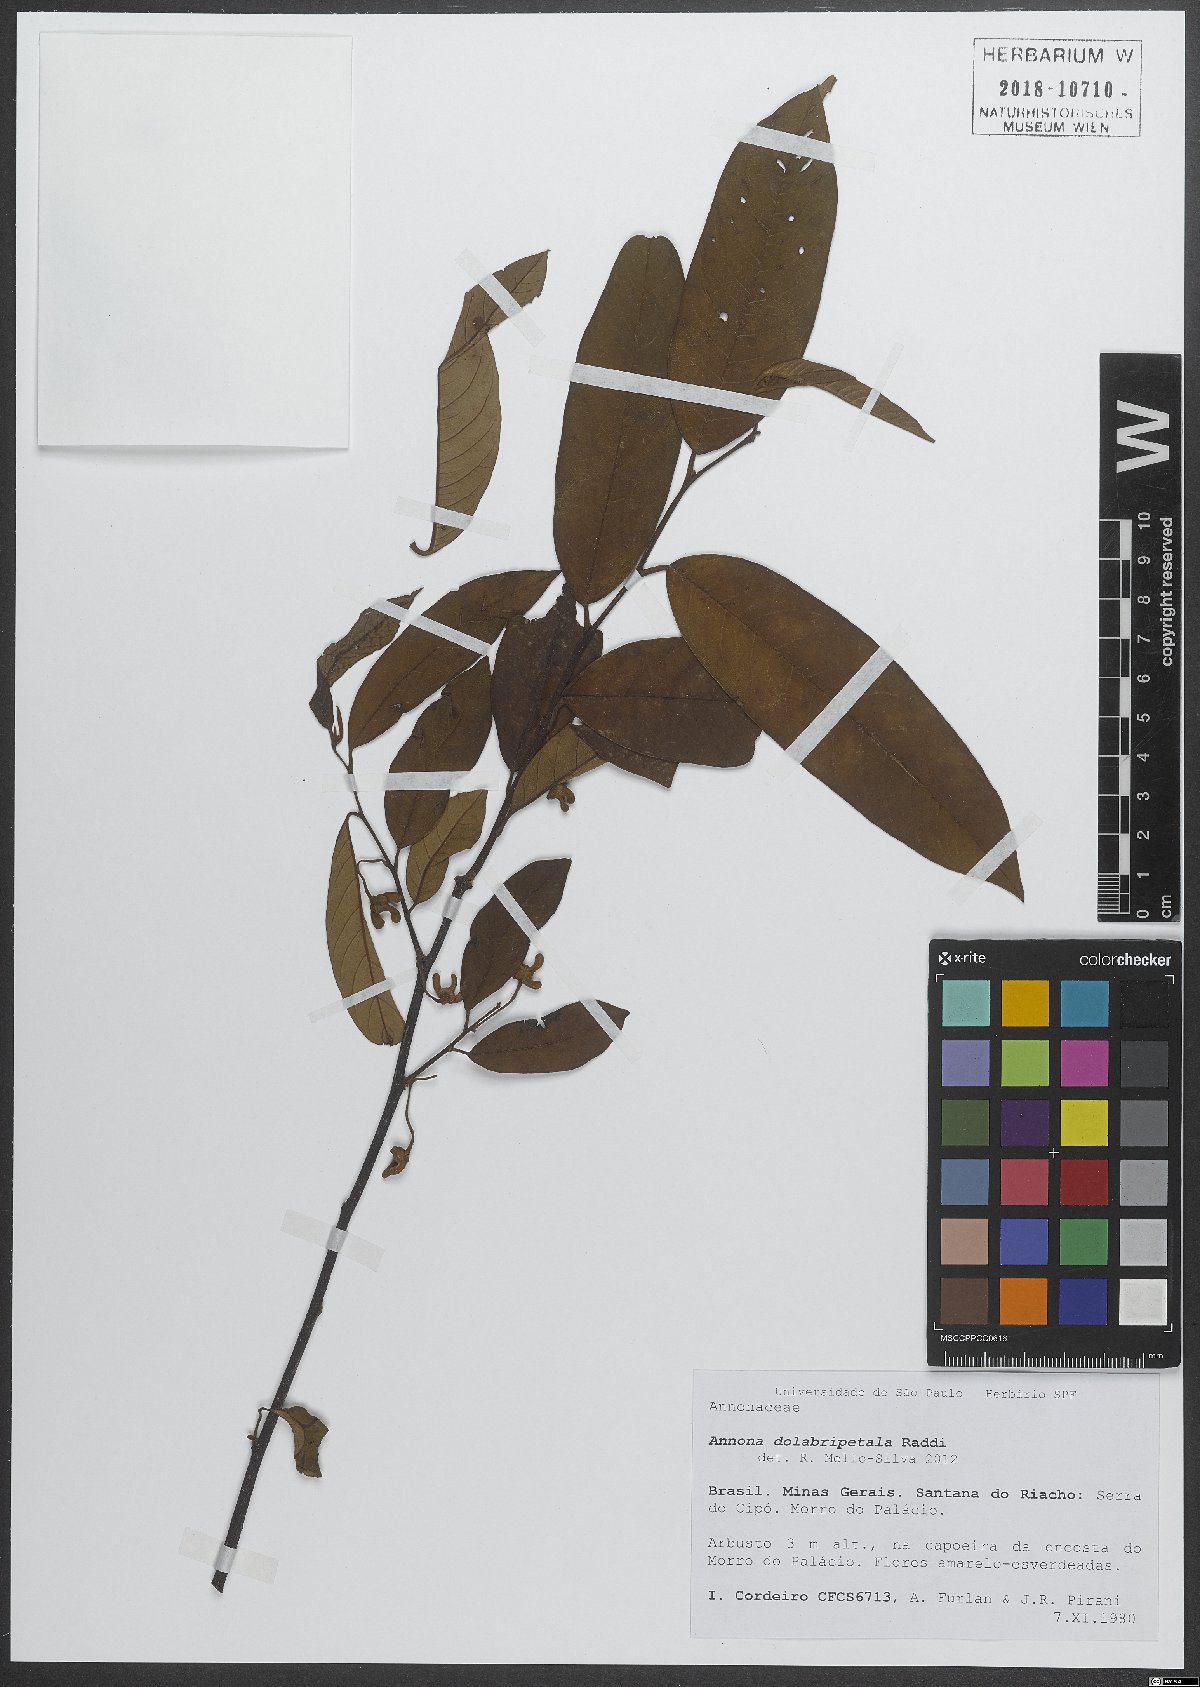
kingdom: Plantae
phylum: Tracheophyta
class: Magnoliopsida
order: Magnoliales
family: Annonaceae
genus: Annona
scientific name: Annona dolabripetala
